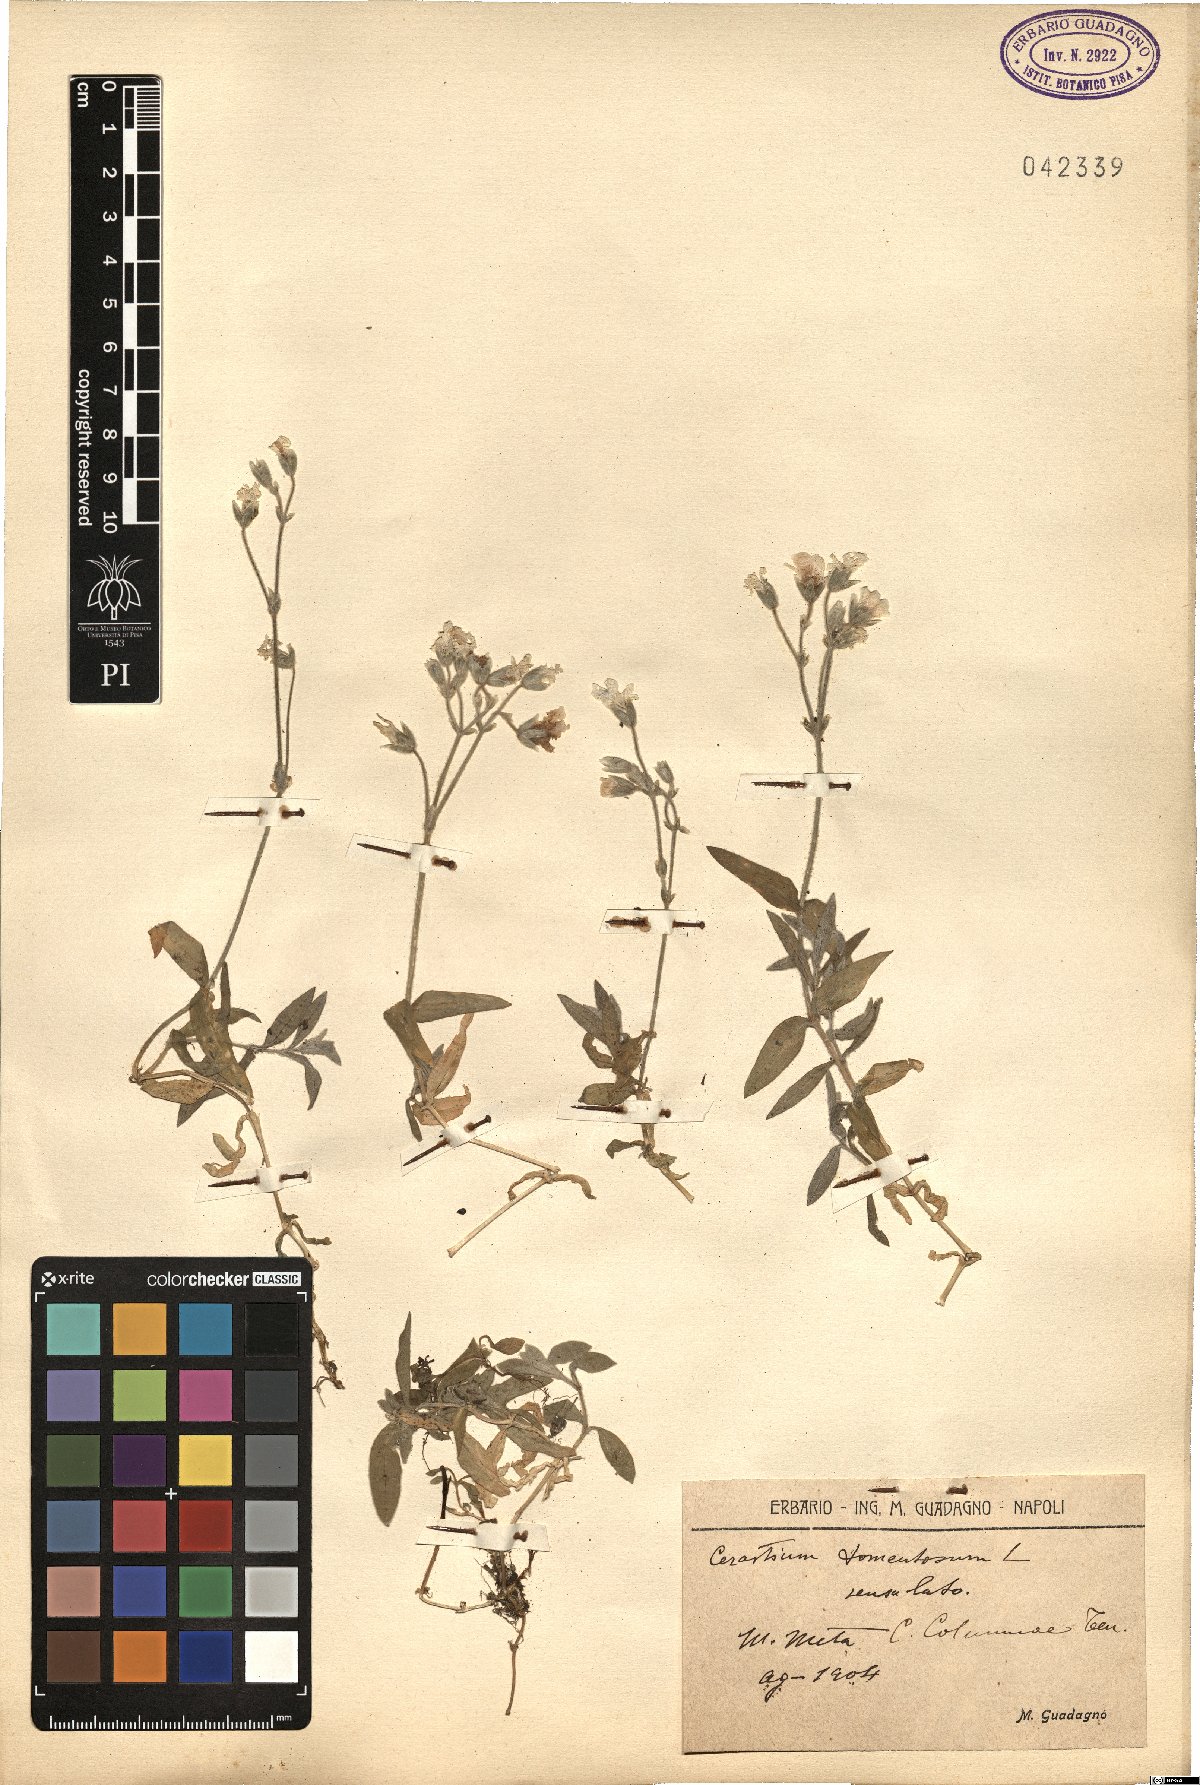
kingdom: Plantae
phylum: Tracheophyta
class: Magnoliopsida
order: Caryophyllales
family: Caryophyllaceae
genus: Cerastium
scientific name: Cerastium tomentosum
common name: Snow-in-summer
